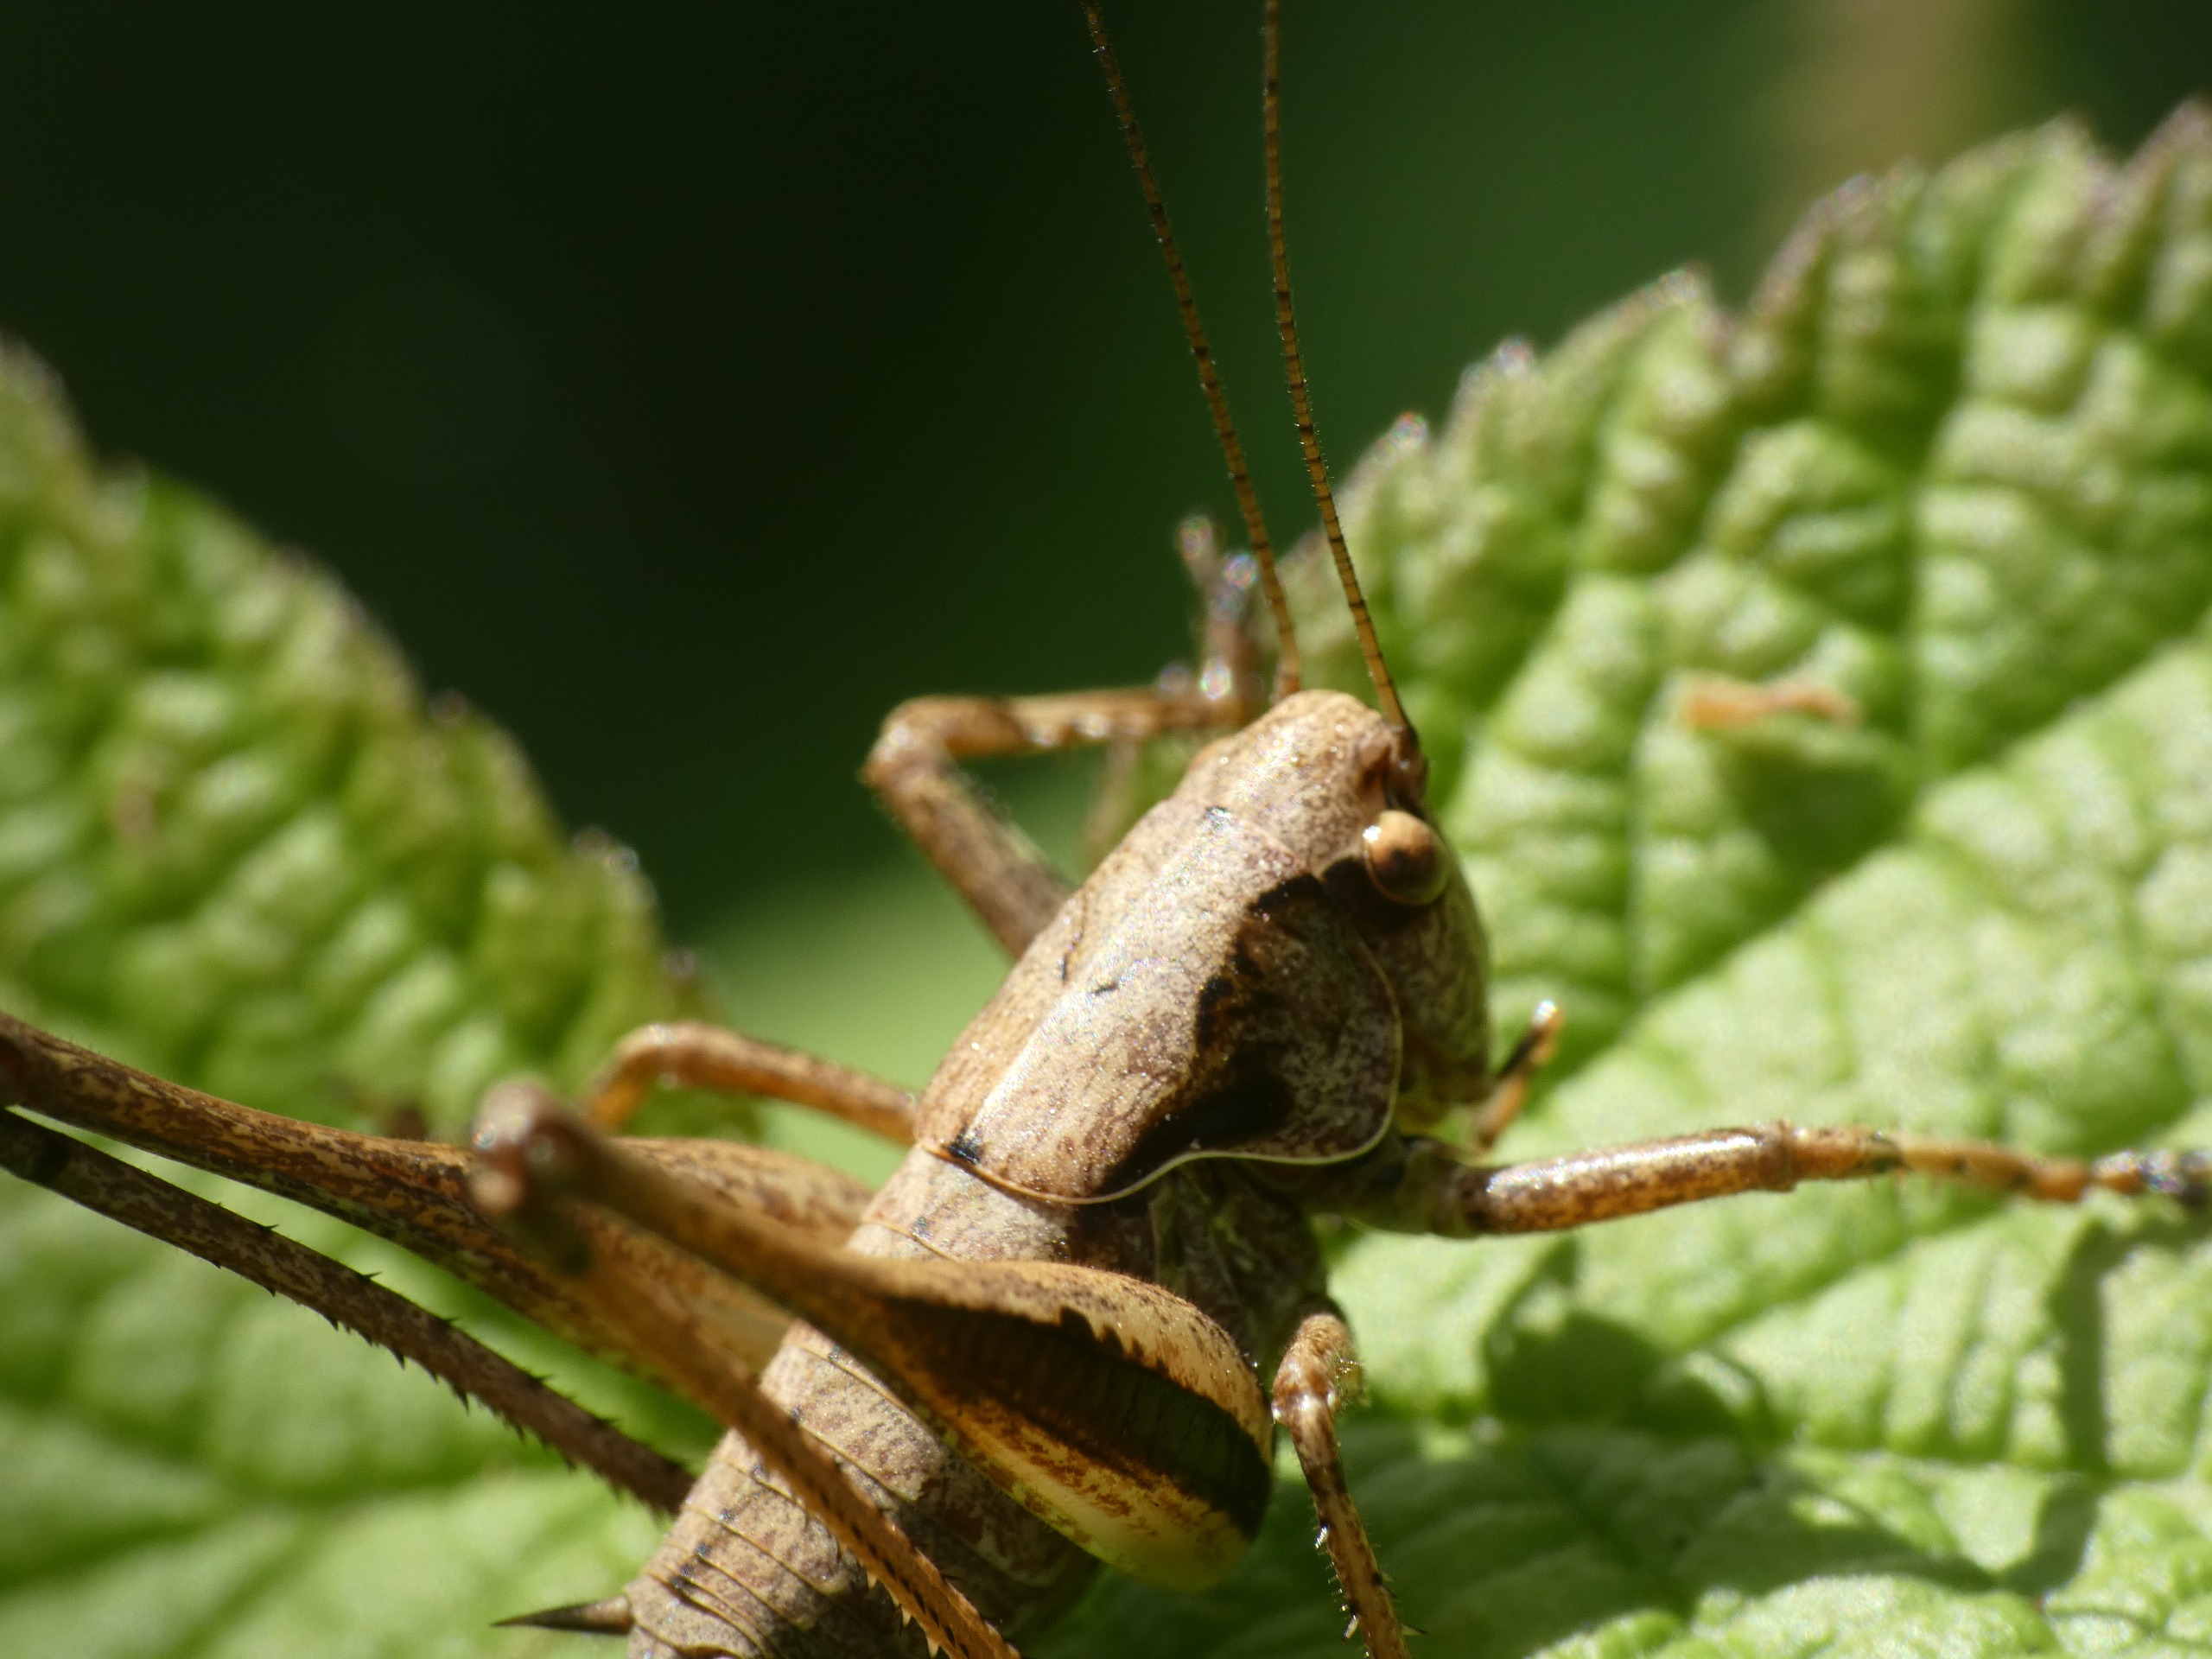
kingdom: Animalia
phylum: Arthropoda
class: Insecta
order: Orthoptera
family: Tettigoniidae
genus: Pholidoptera
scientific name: Pholidoptera griseoaptera
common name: Buskgræshoppe
